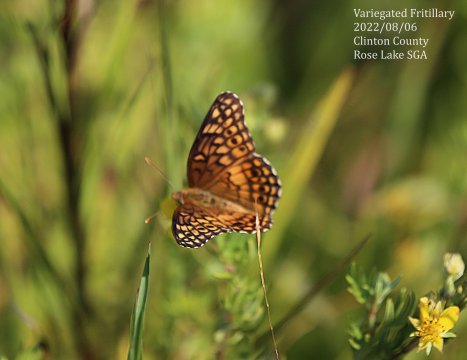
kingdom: Animalia
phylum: Arthropoda
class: Insecta
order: Lepidoptera
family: Nymphalidae
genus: Euptoieta
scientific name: Euptoieta claudia
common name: Variegated Fritillary
